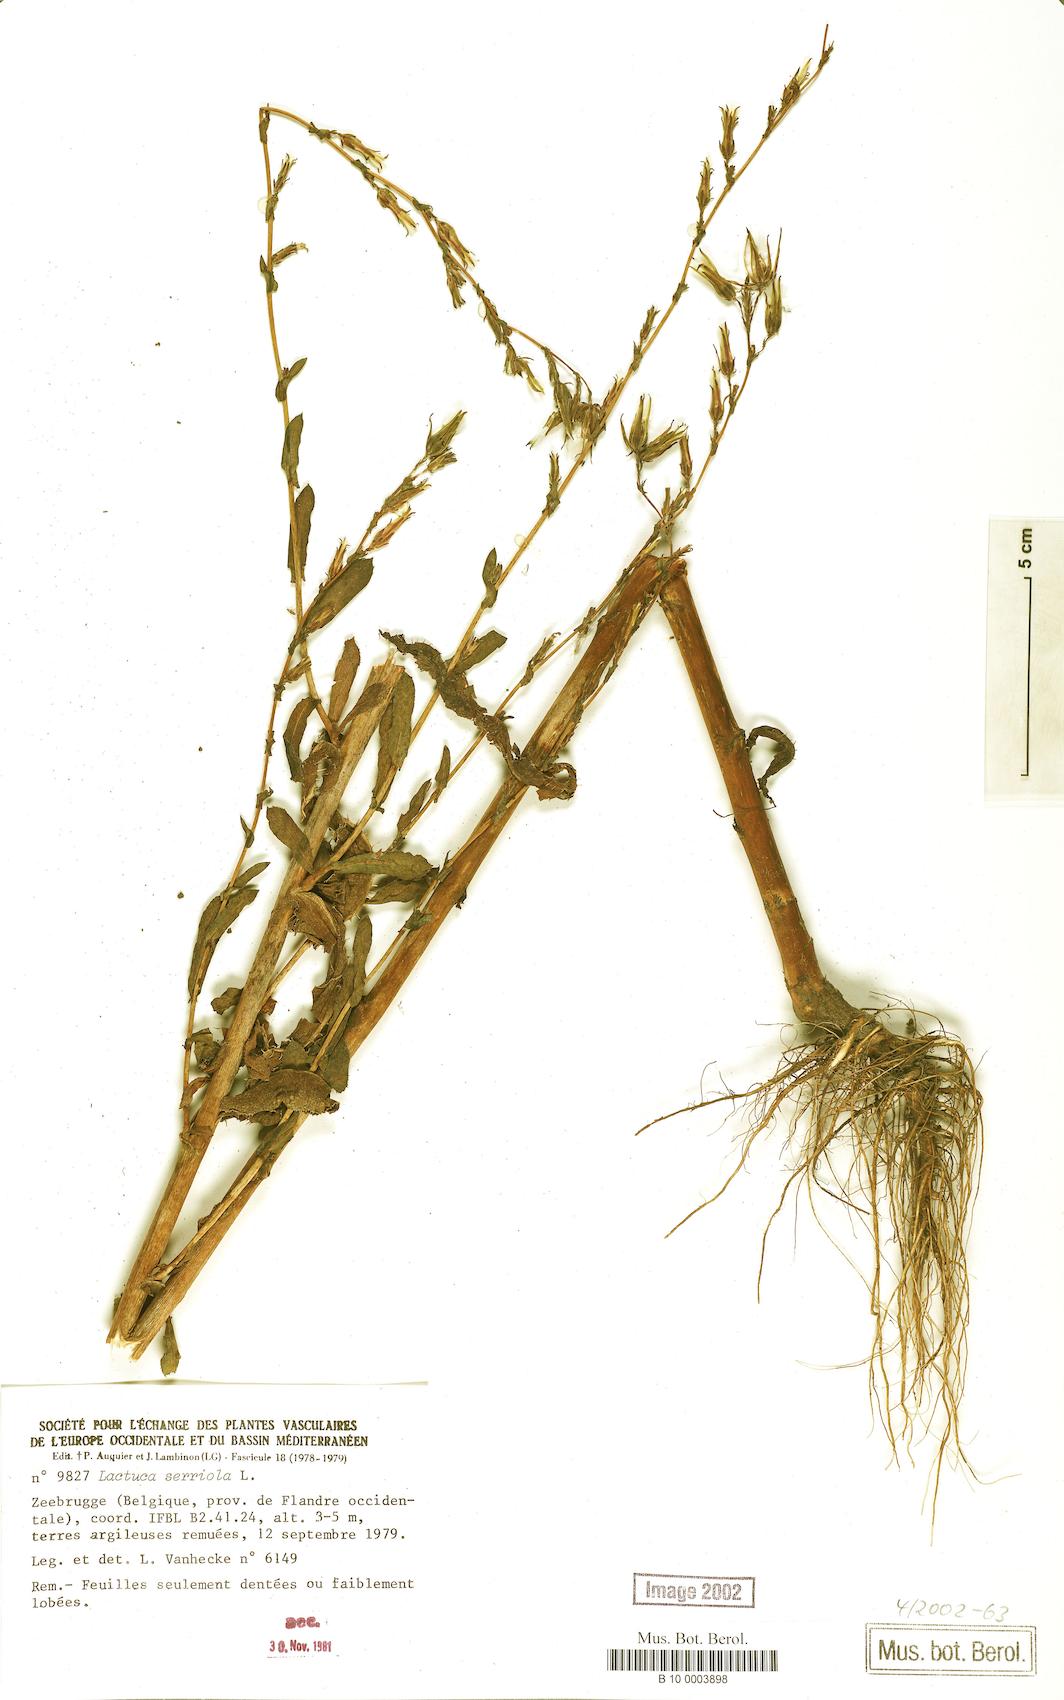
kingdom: Plantae
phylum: Tracheophyta
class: Magnoliopsida
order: Asterales
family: Asteraceae
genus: Lactuca
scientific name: Lactuca serriola
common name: Prickly lettuce
